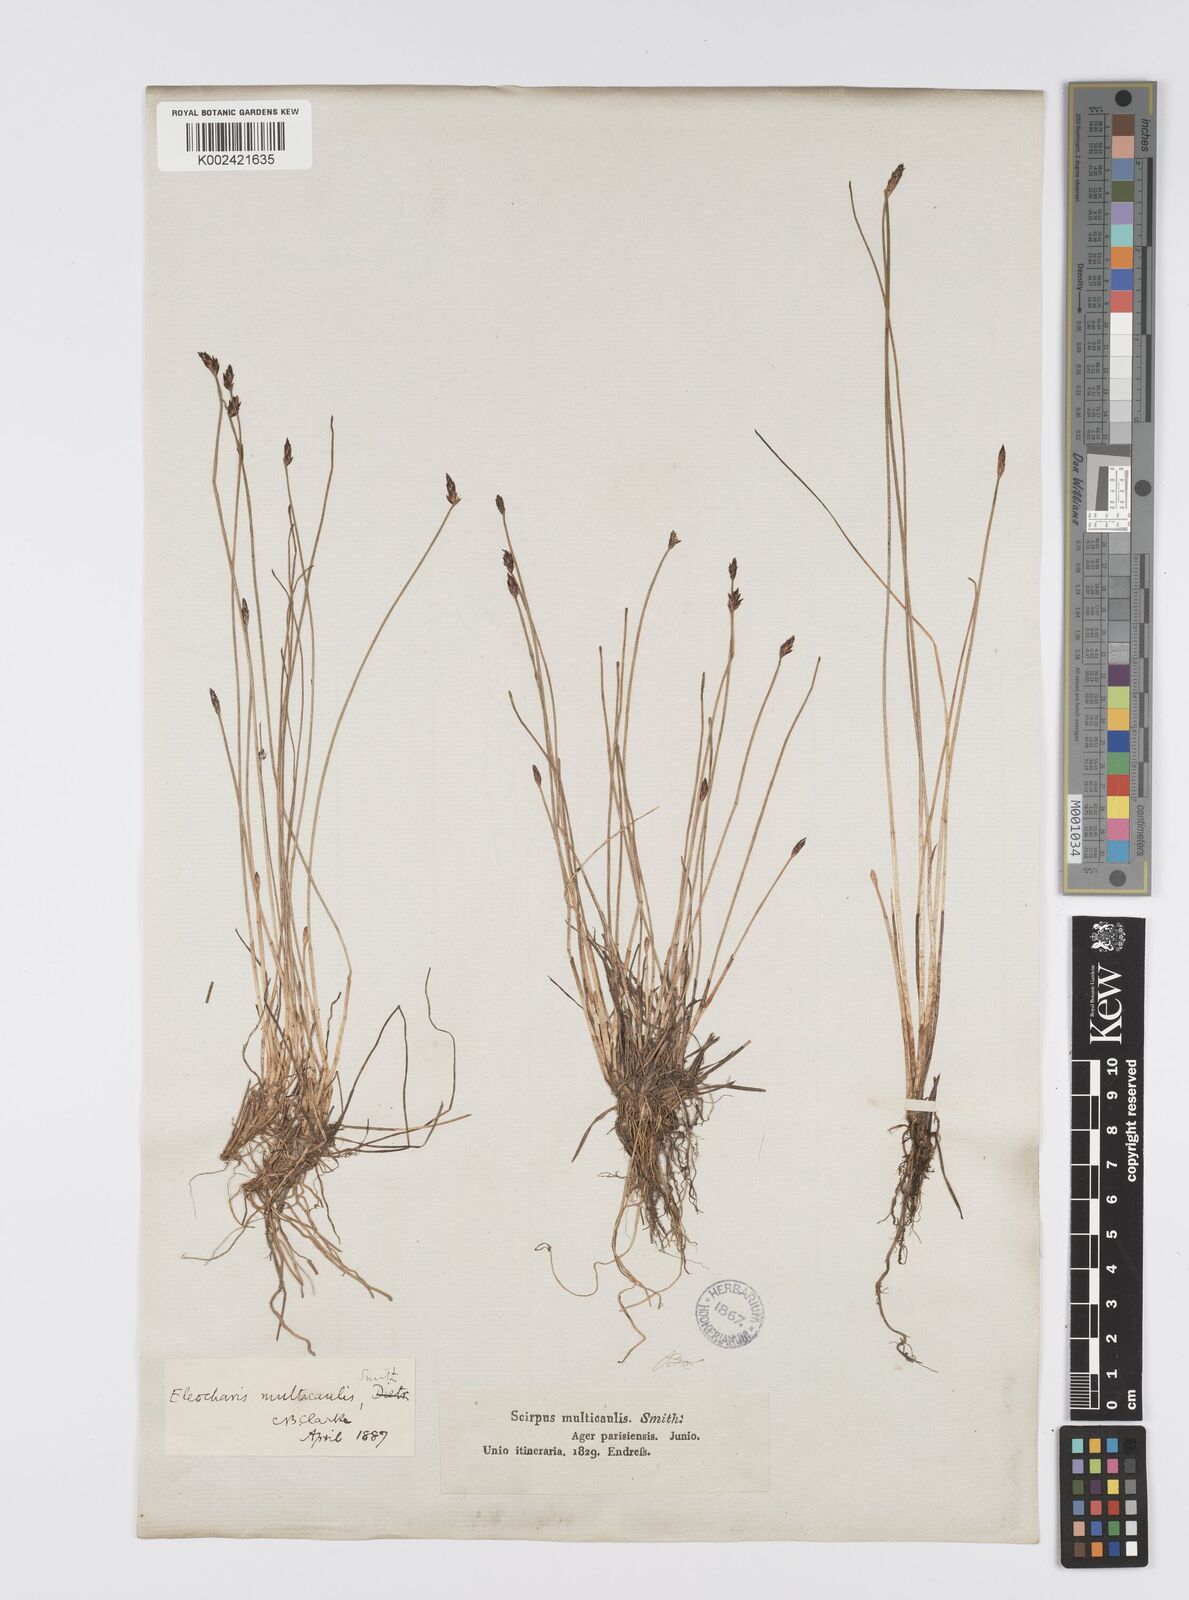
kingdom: Plantae
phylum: Tracheophyta
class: Liliopsida
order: Poales
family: Cyperaceae
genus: Eleocharis
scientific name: Eleocharis multicaulis
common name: Many-stalked spike-rush
